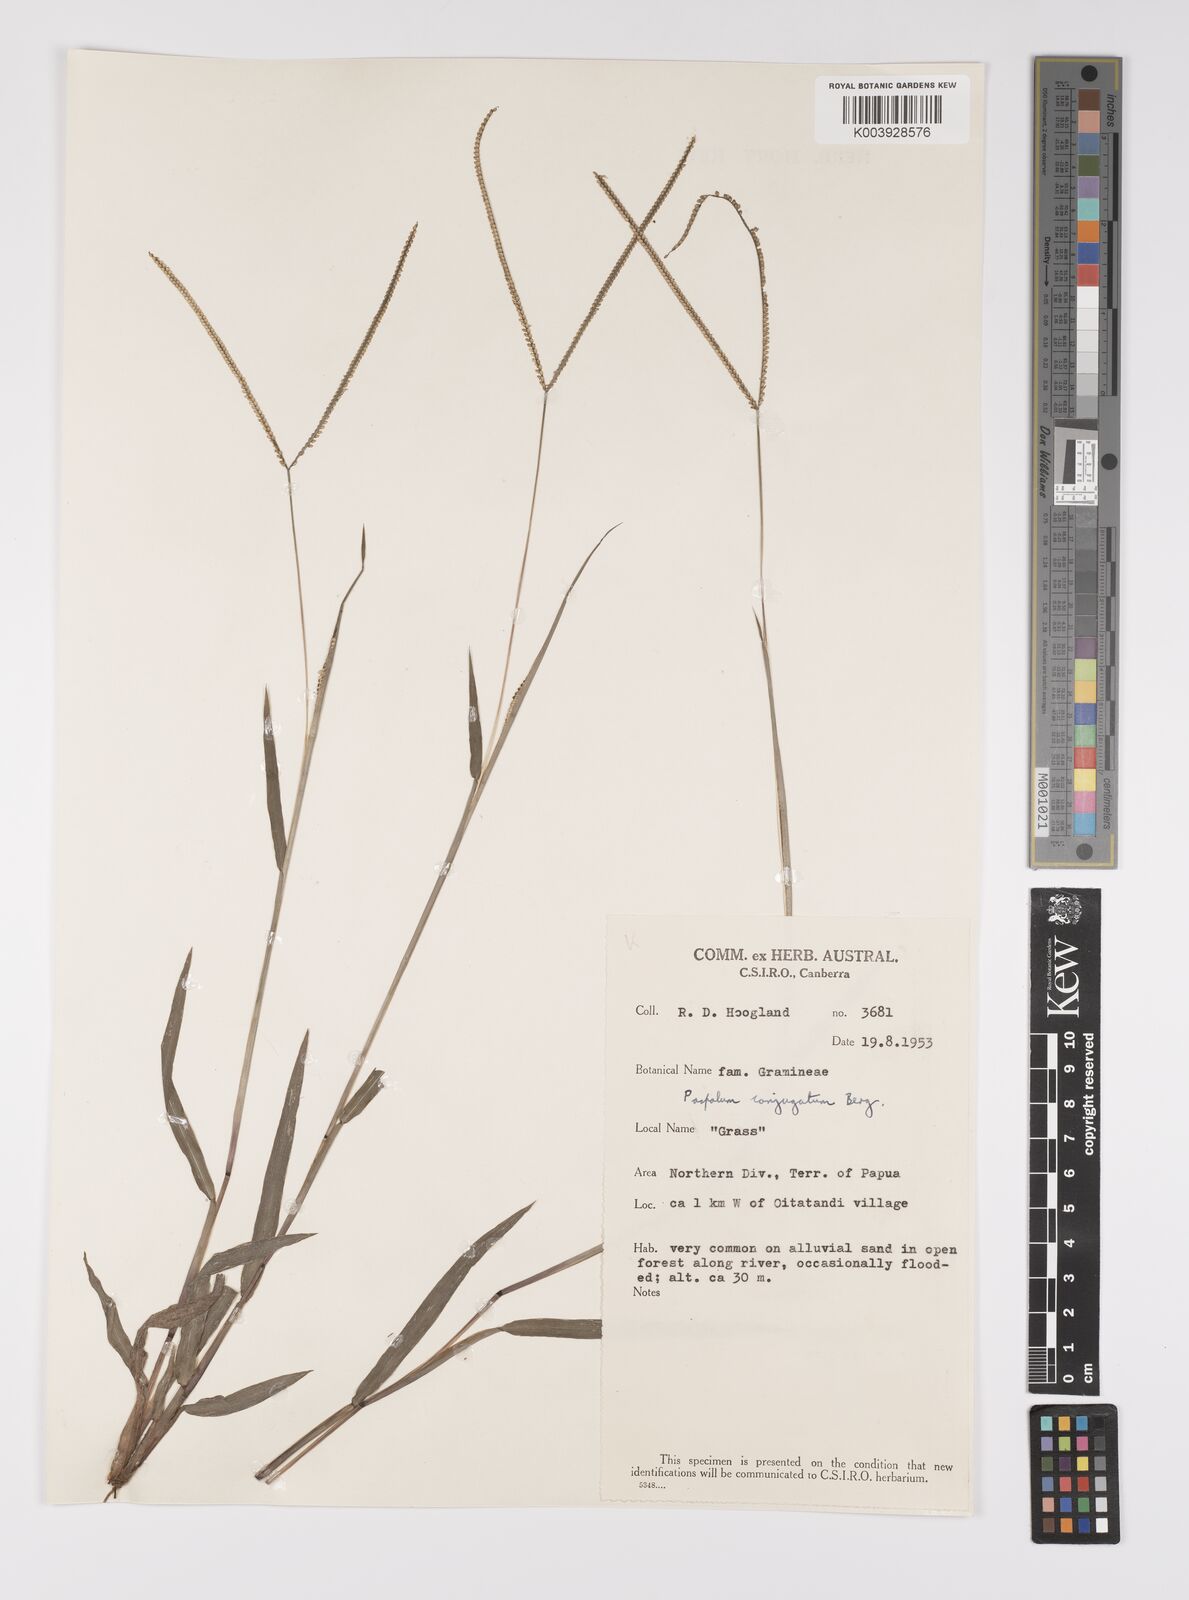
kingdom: Plantae
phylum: Tracheophyta
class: Liliopsida
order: Poales
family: Poaceae
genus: Paspalum
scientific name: Paspalum conjugatum
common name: Hilograss
